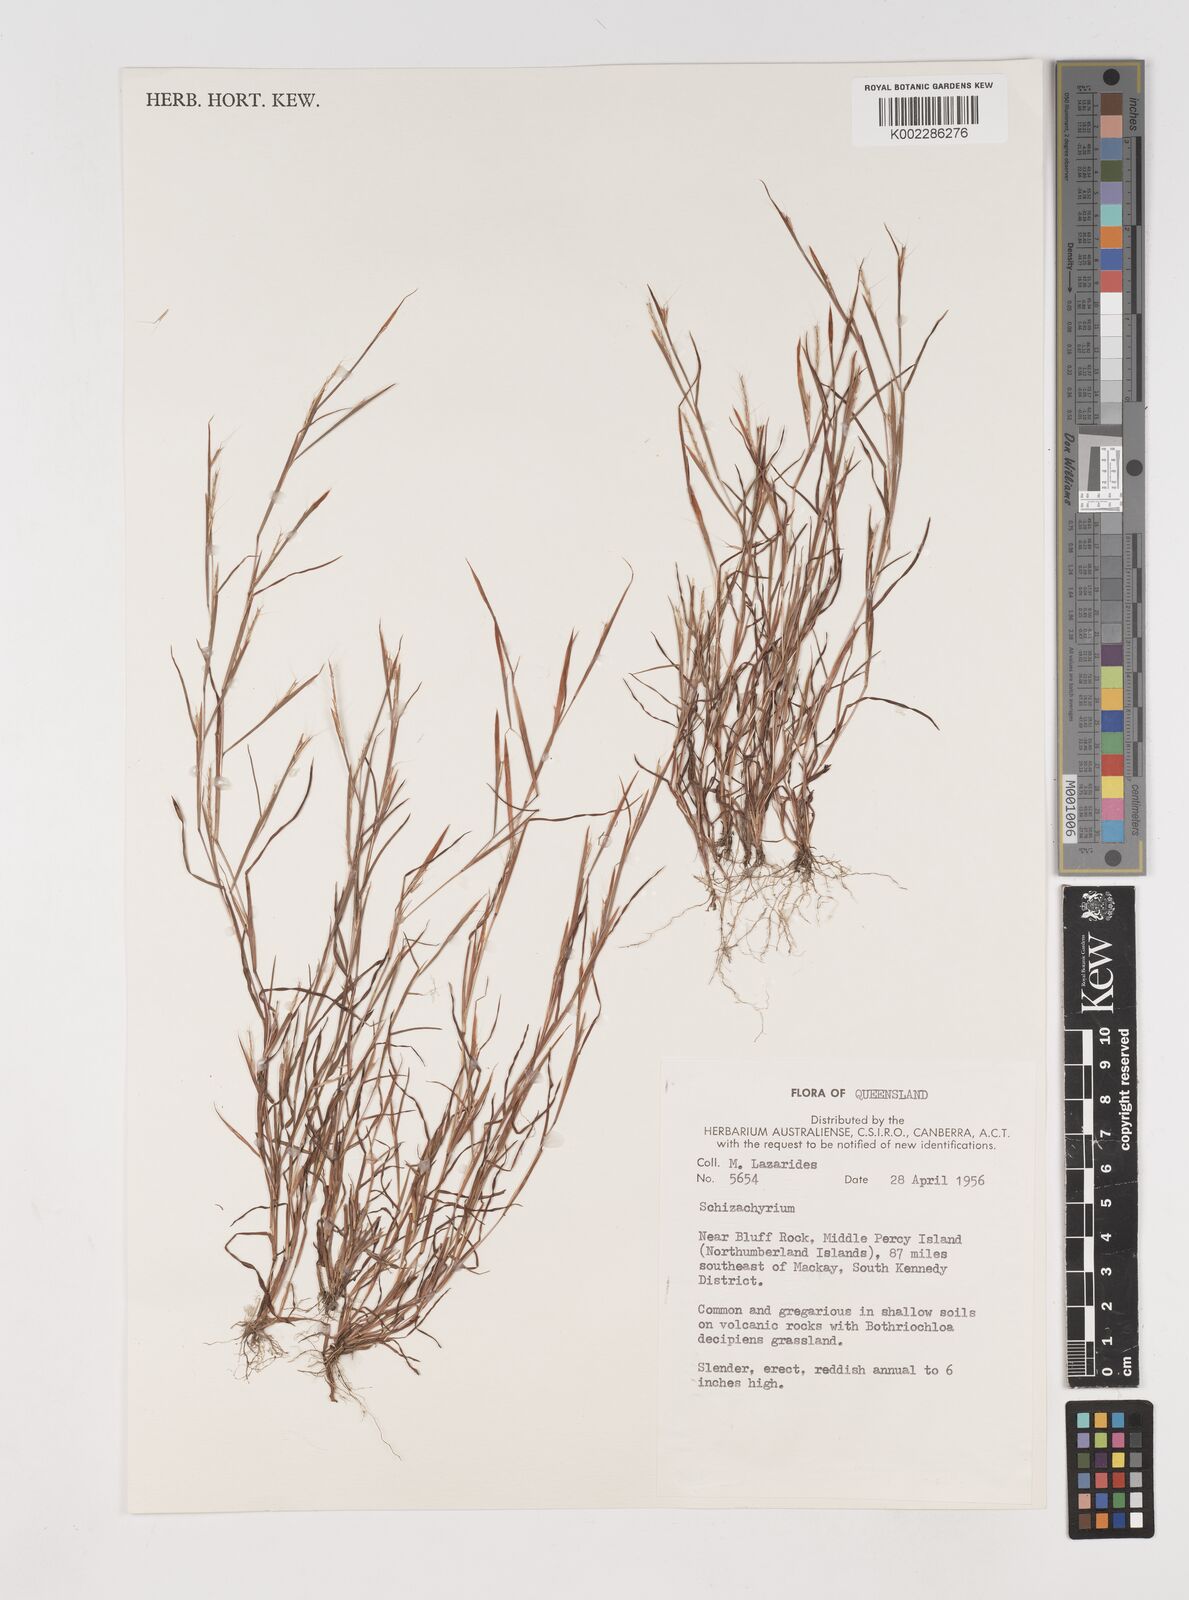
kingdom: Plantae
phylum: Tracheophyta
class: Liliopsida
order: Poales
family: Poaceae
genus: Schizachyrium
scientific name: Schizachyrium pseudeulalia
